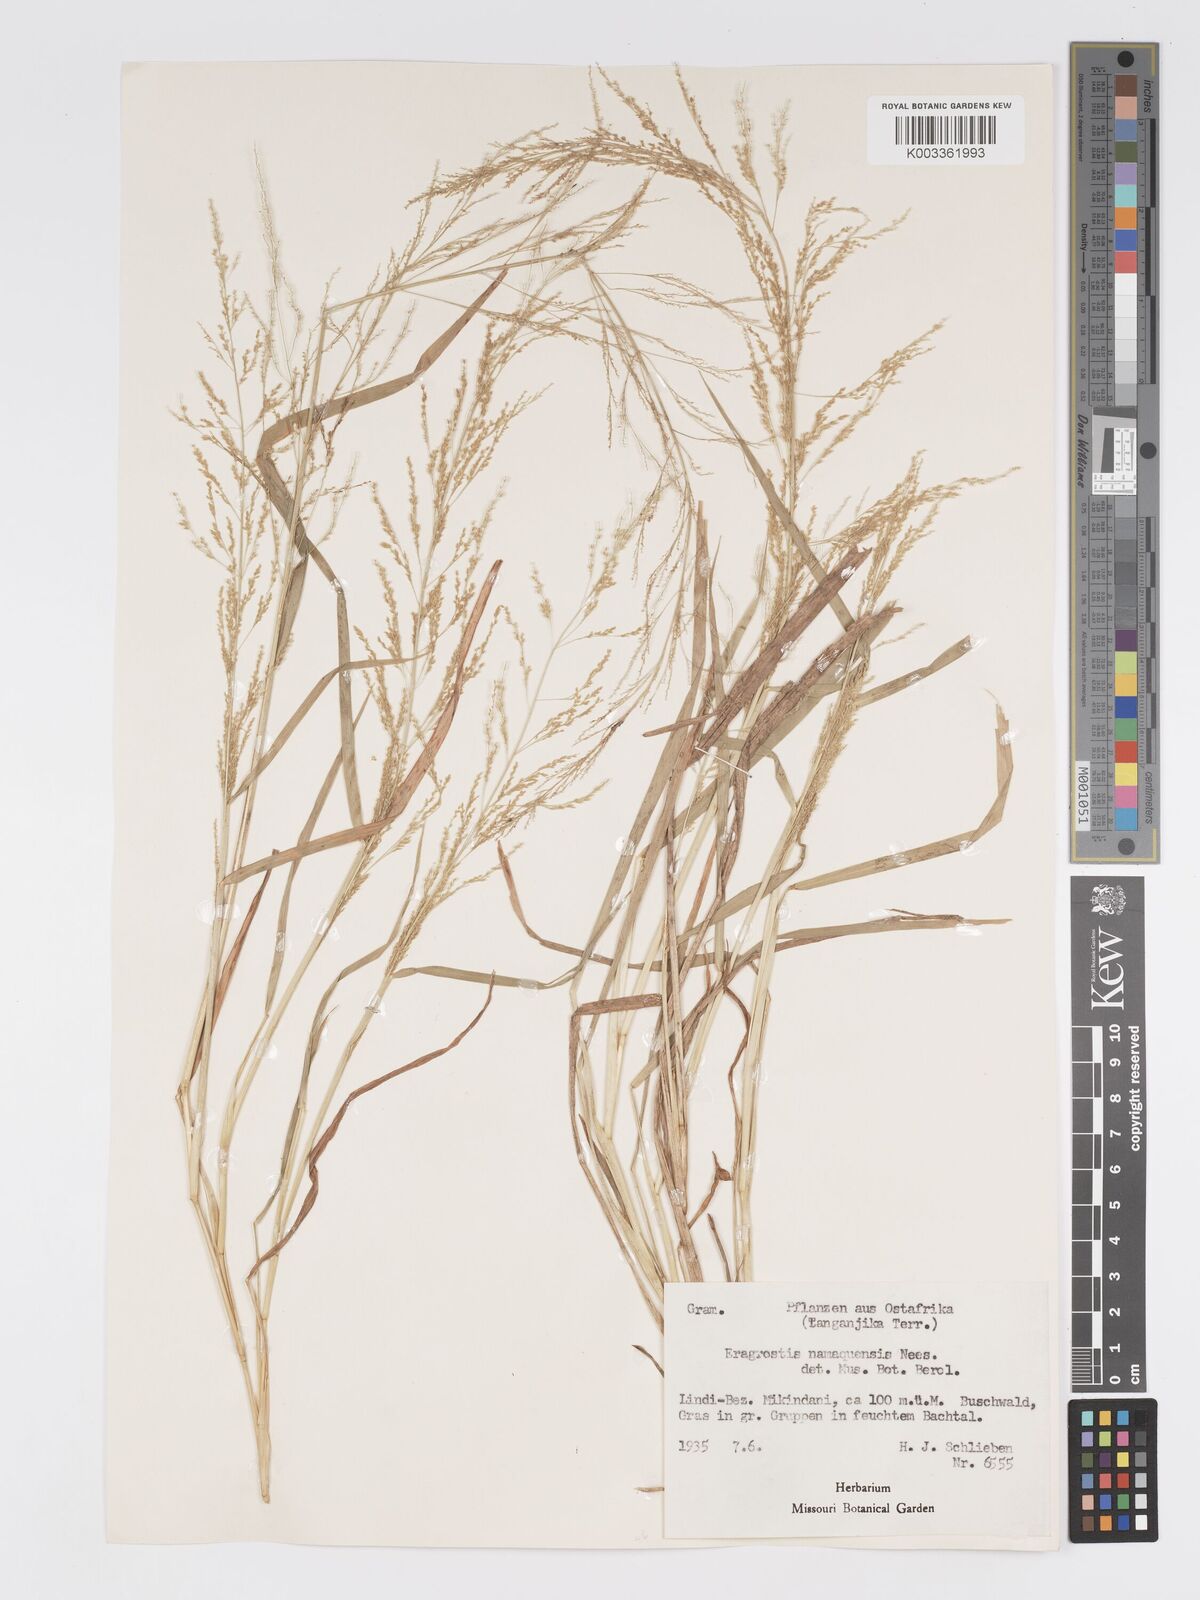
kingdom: Plantae
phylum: Tracheophyta
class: Liliopsida
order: Poales
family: Poaceae
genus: Eragrostis
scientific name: Eragrostis japonica
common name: Pond lovegrass
